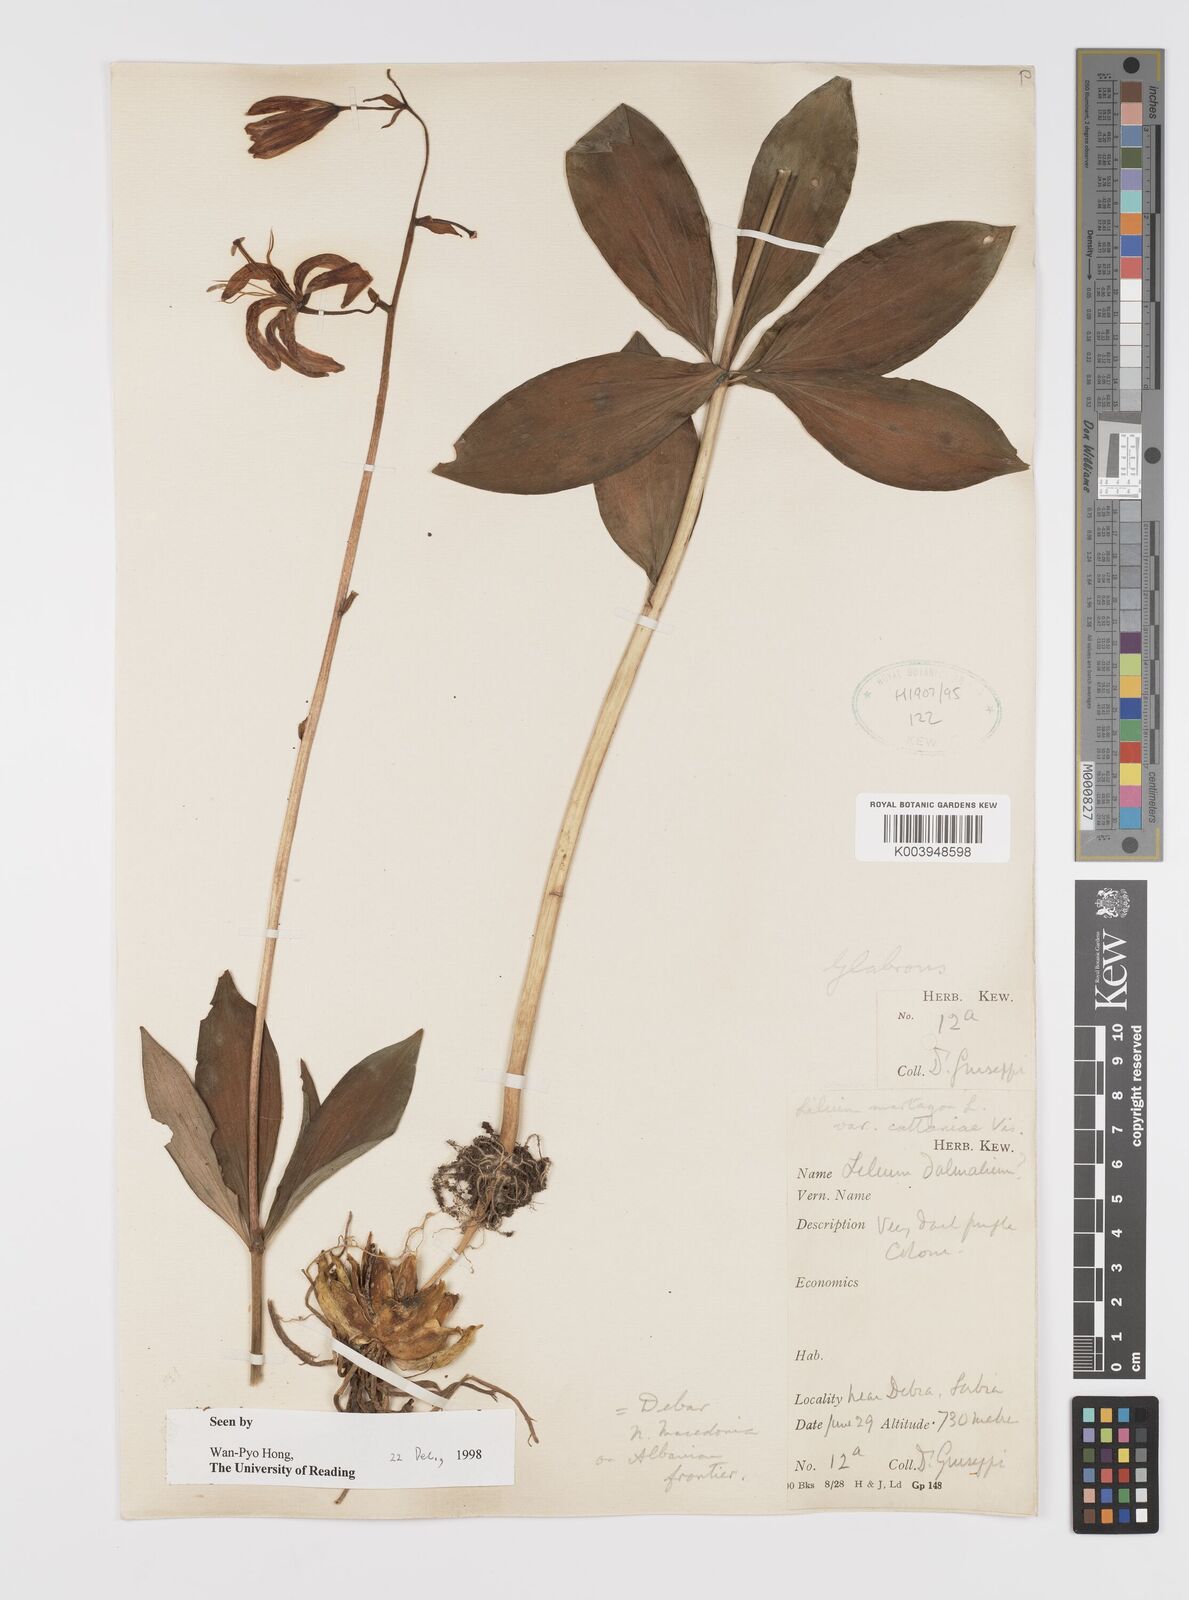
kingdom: Plantae
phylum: Tracheophyta
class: Liliopsida
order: Liliales
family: Liliaceae
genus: Lilium
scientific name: Lilium martagon
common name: Martagon lily
